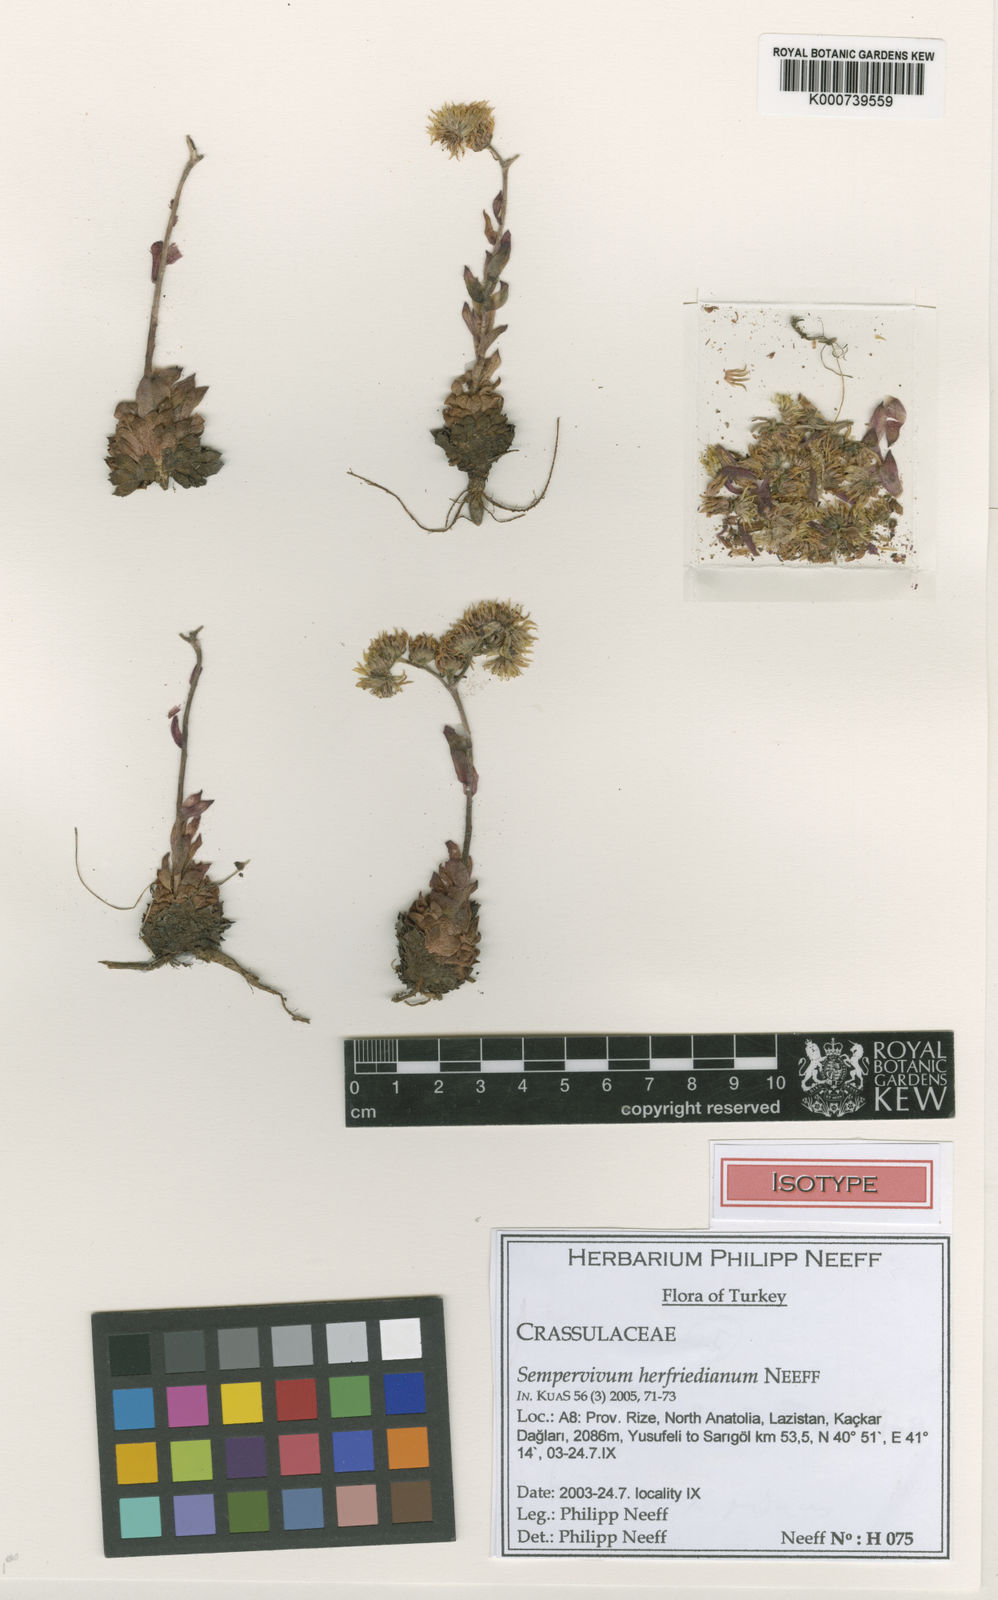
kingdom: Plantae
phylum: Tracheophyta
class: Magnoliopsida
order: Saxifragales
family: Crassulaceae
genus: Sempervivum
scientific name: Sempervivum herfriedianum
